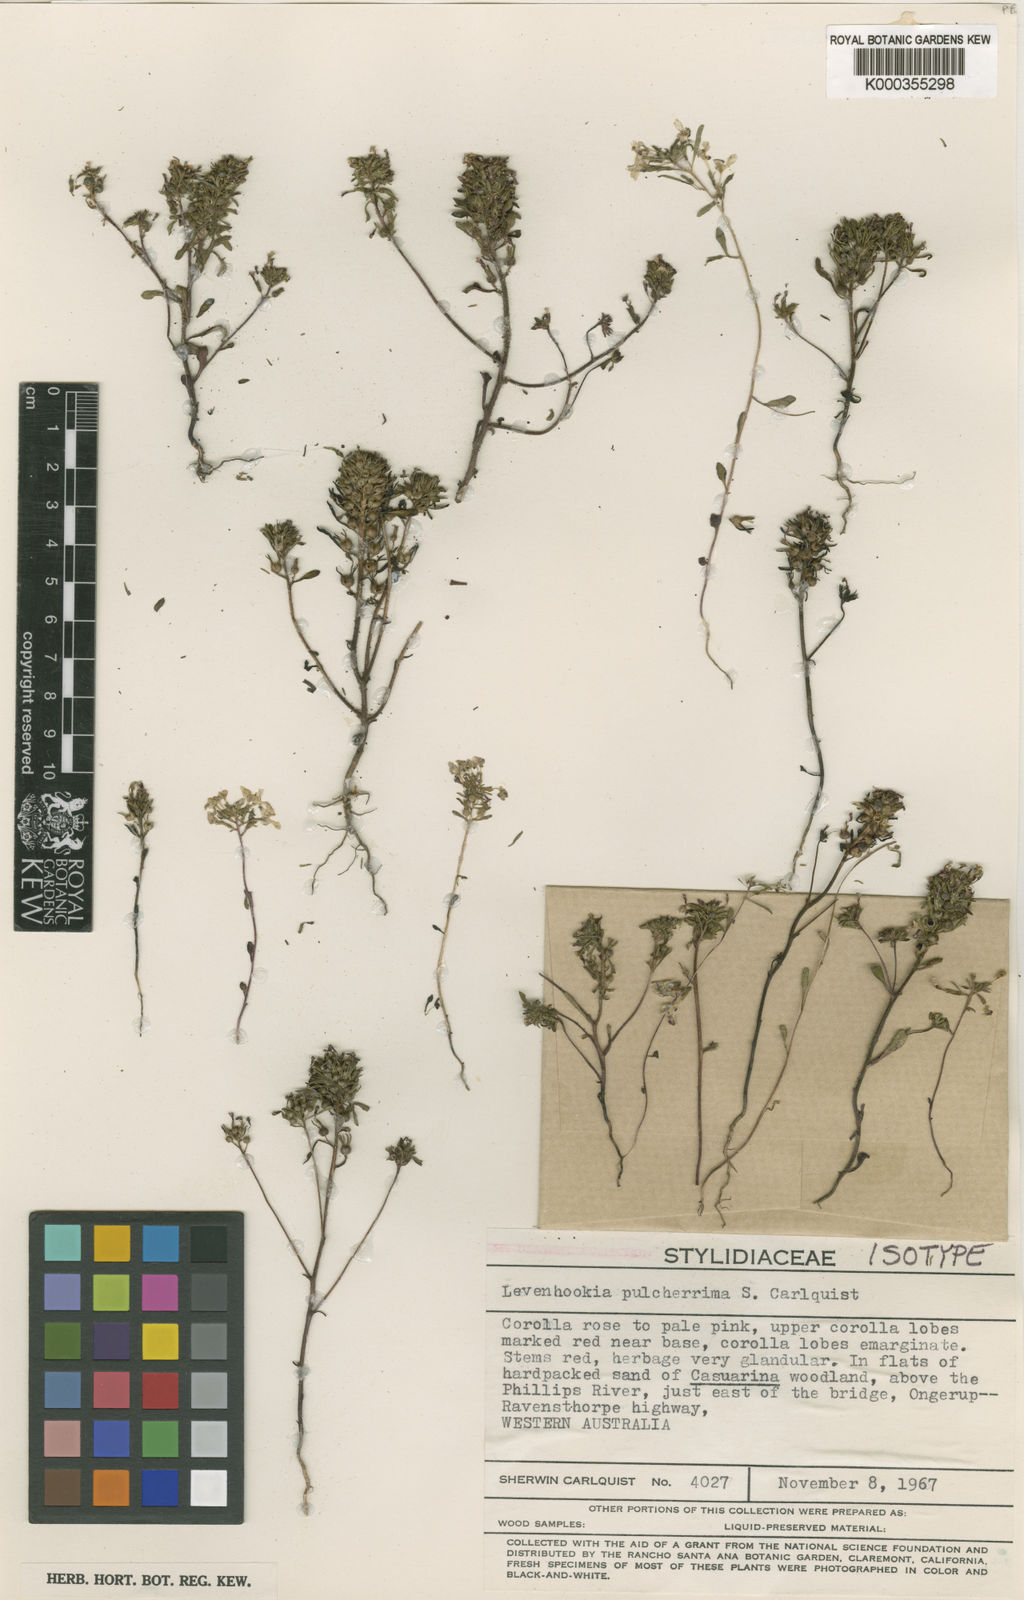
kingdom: Plantae
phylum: Tracheophyta
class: Magnoliopsida
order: Asterales
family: Stylidiaceae
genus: Levenhookia
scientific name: Levenhookia pulcherrima
